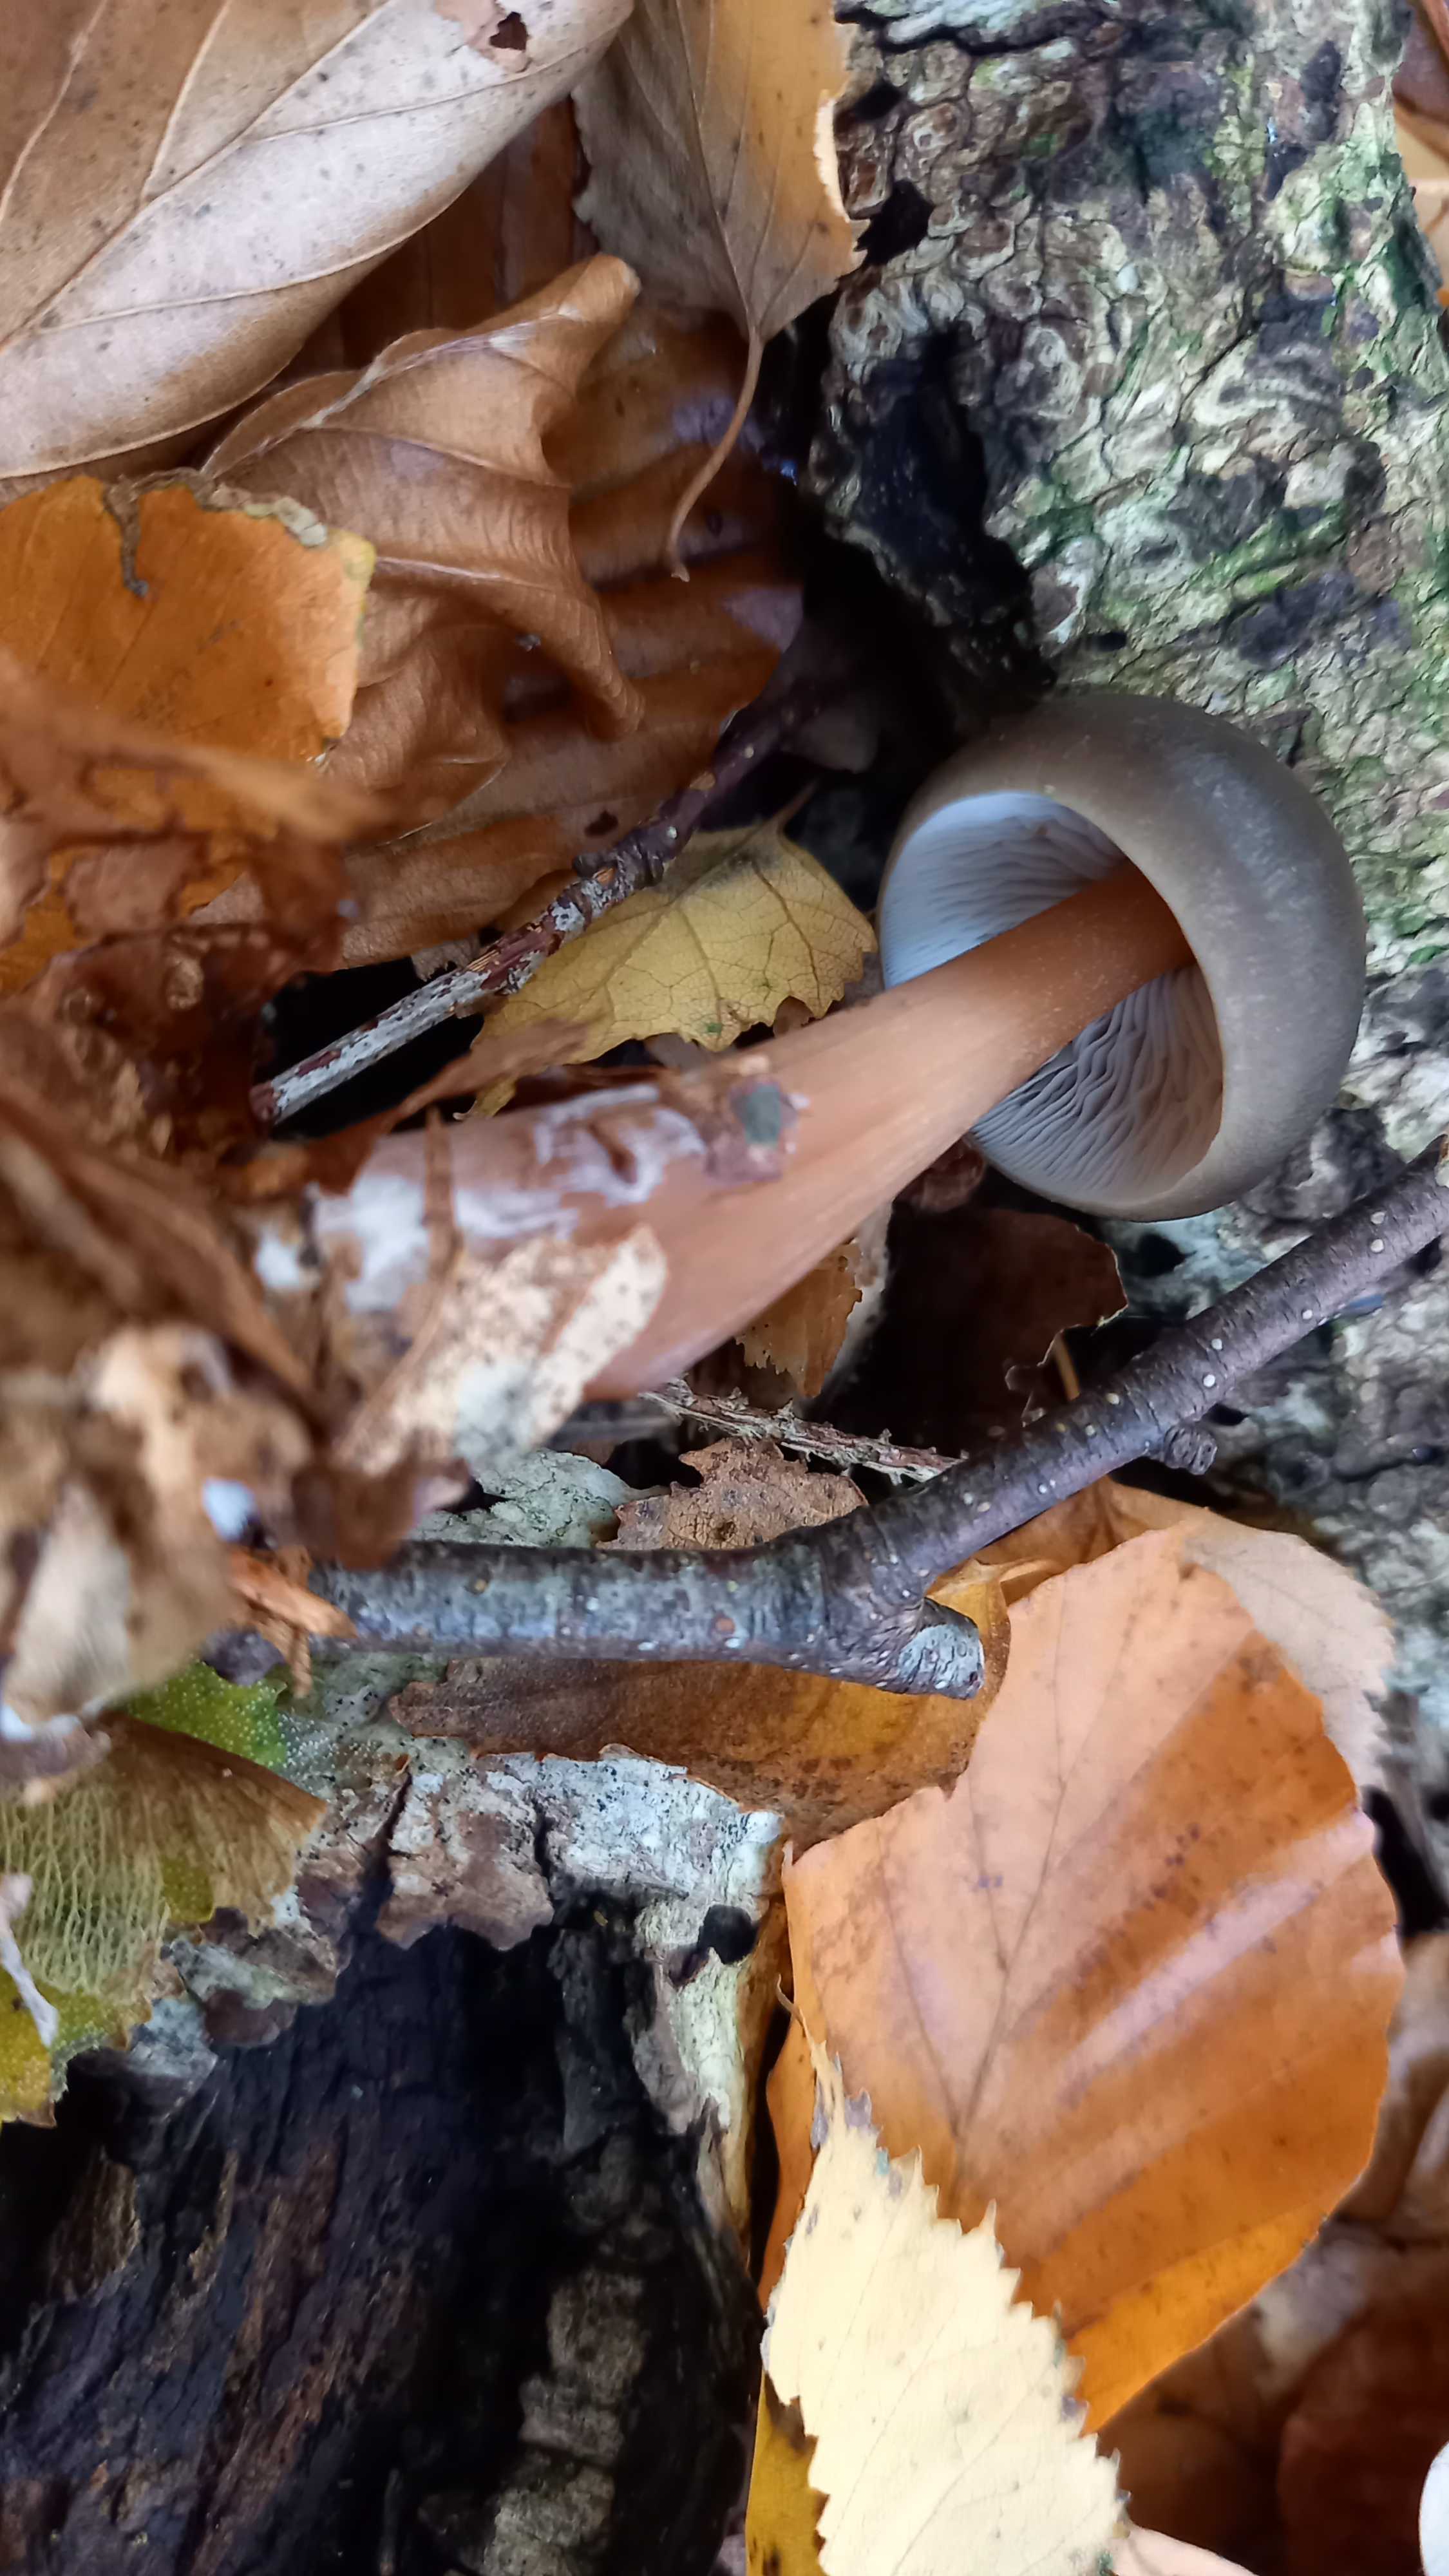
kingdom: Fungi
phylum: Basidiomycota
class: Agaricomycetes
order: Agaricales
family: Omphalotaceae
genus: Rhodocollybia
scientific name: Rhodocollybia butyracea
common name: keglestokket fladhat
